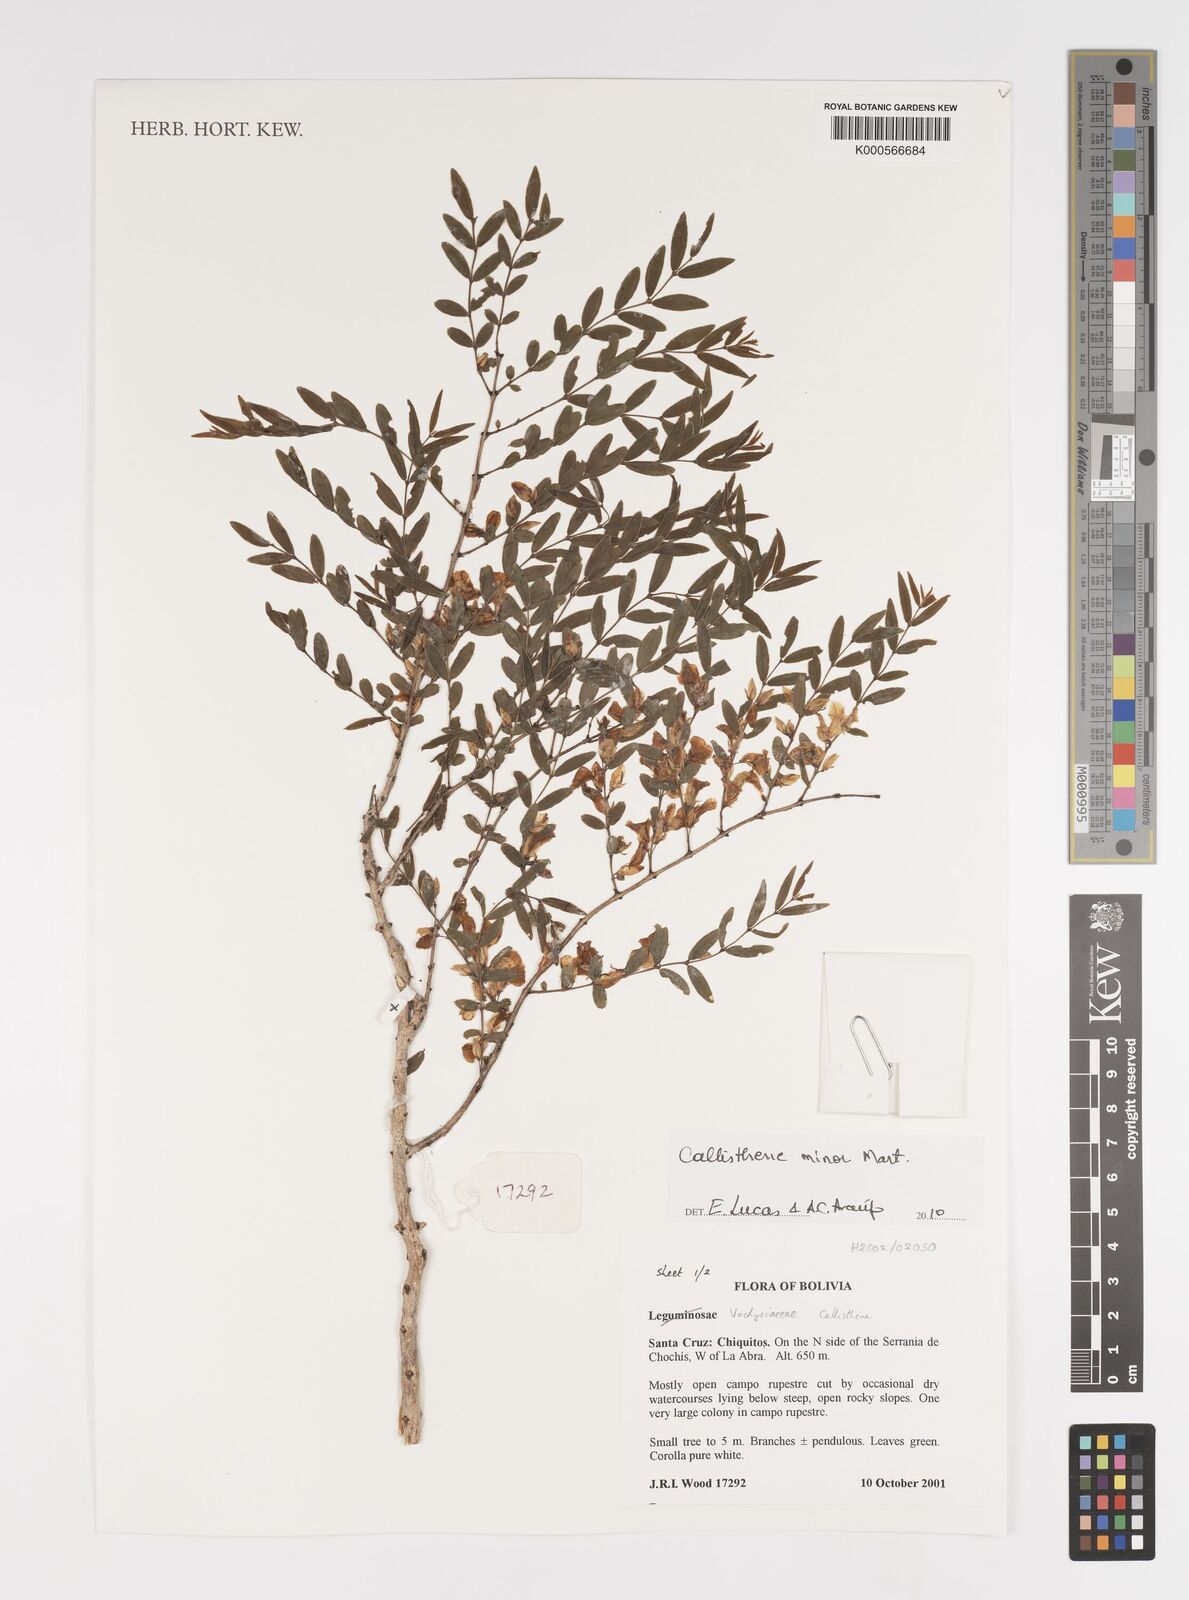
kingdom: Plantae
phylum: Tracheophyta
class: Magnoliopsida
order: Myrtales
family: Vochysiaceae
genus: Callisthene
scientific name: Callisthene minor
